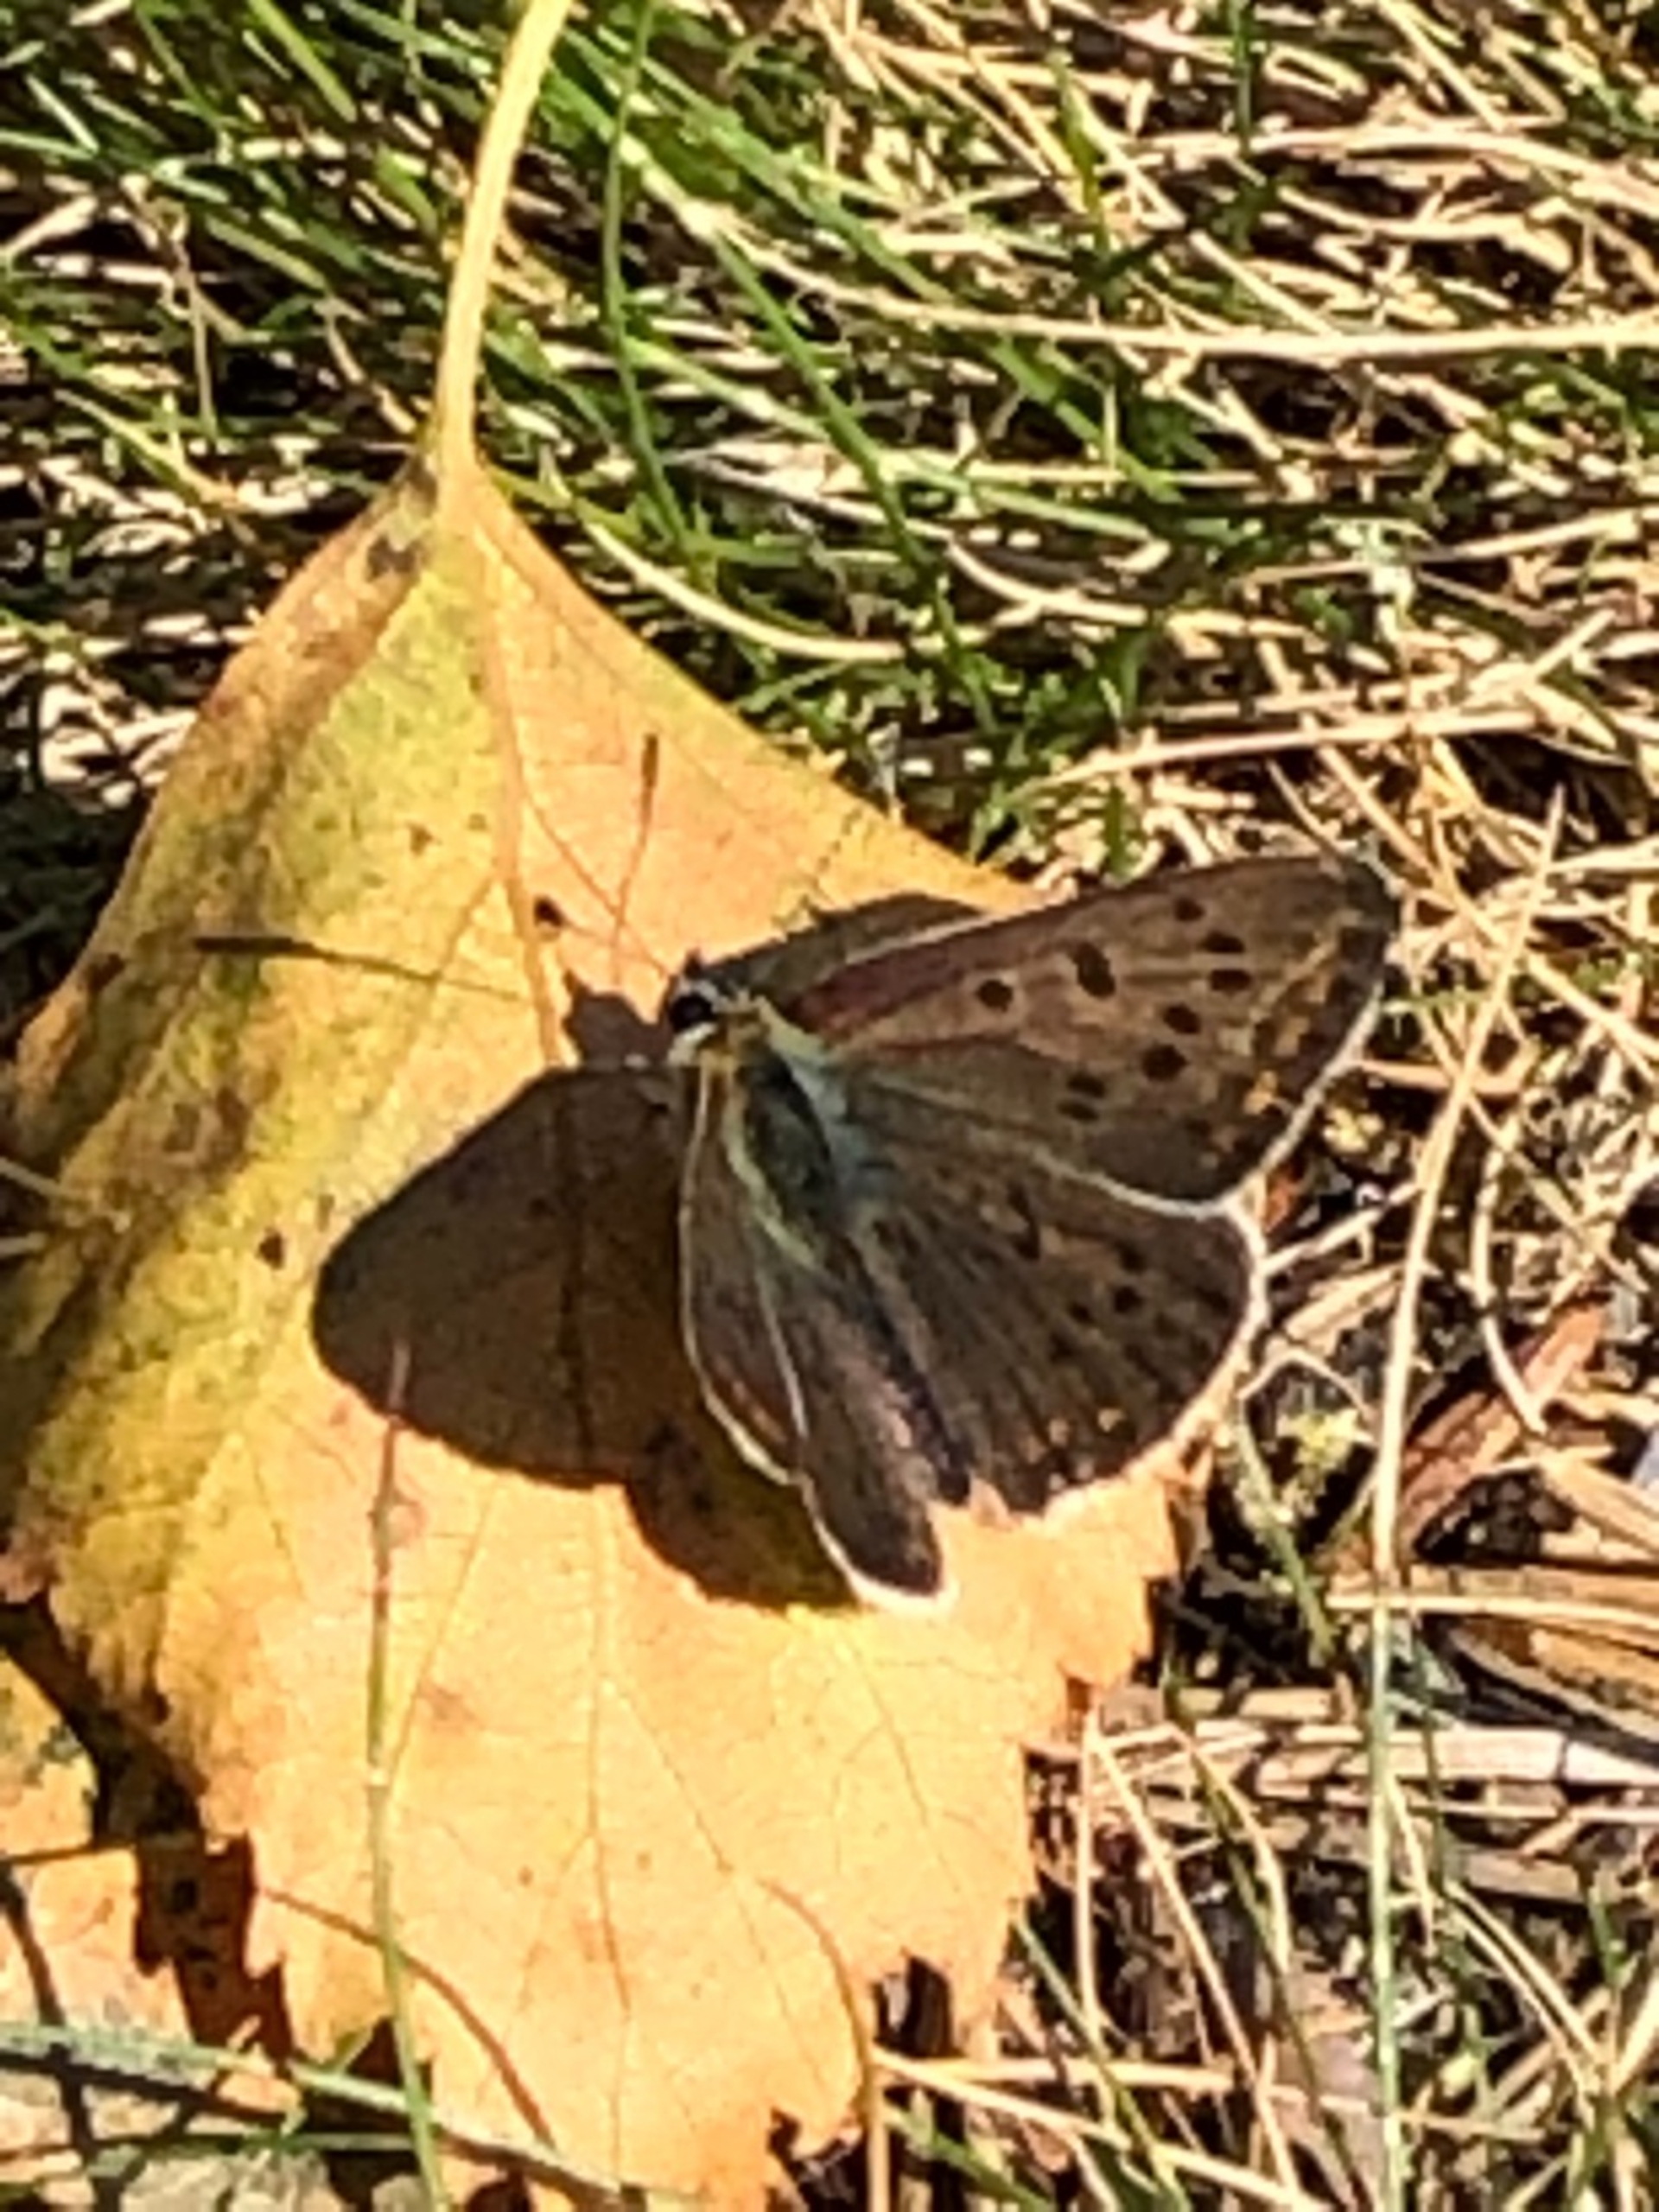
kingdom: Animalia
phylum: Arthropoda
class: Insecta
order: Lepidoptera
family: Lycaenidae
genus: Loweia
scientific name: Loweia tityrus
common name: Sort ildfugl
